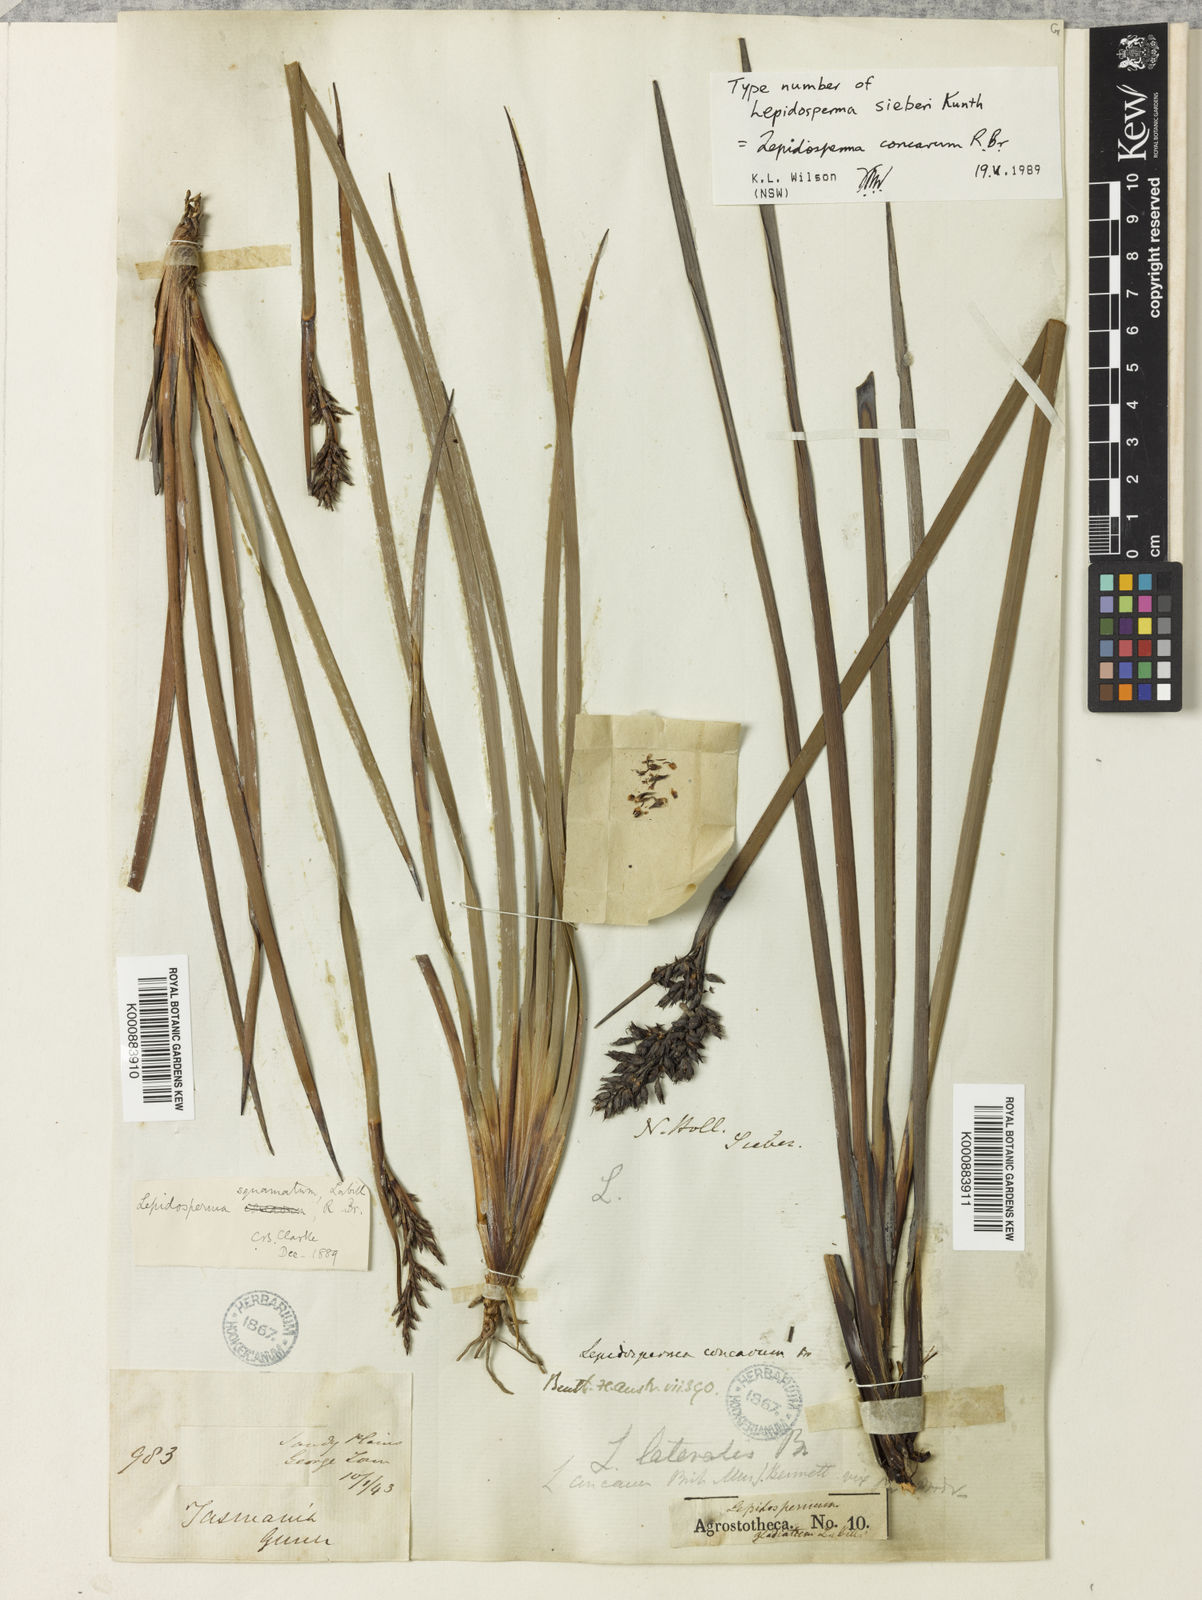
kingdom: Plantae
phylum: Tracheophyta
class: Liliopsida
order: Poales
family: Cyperaceae
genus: Lepidosperma
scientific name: Lepidosperma
